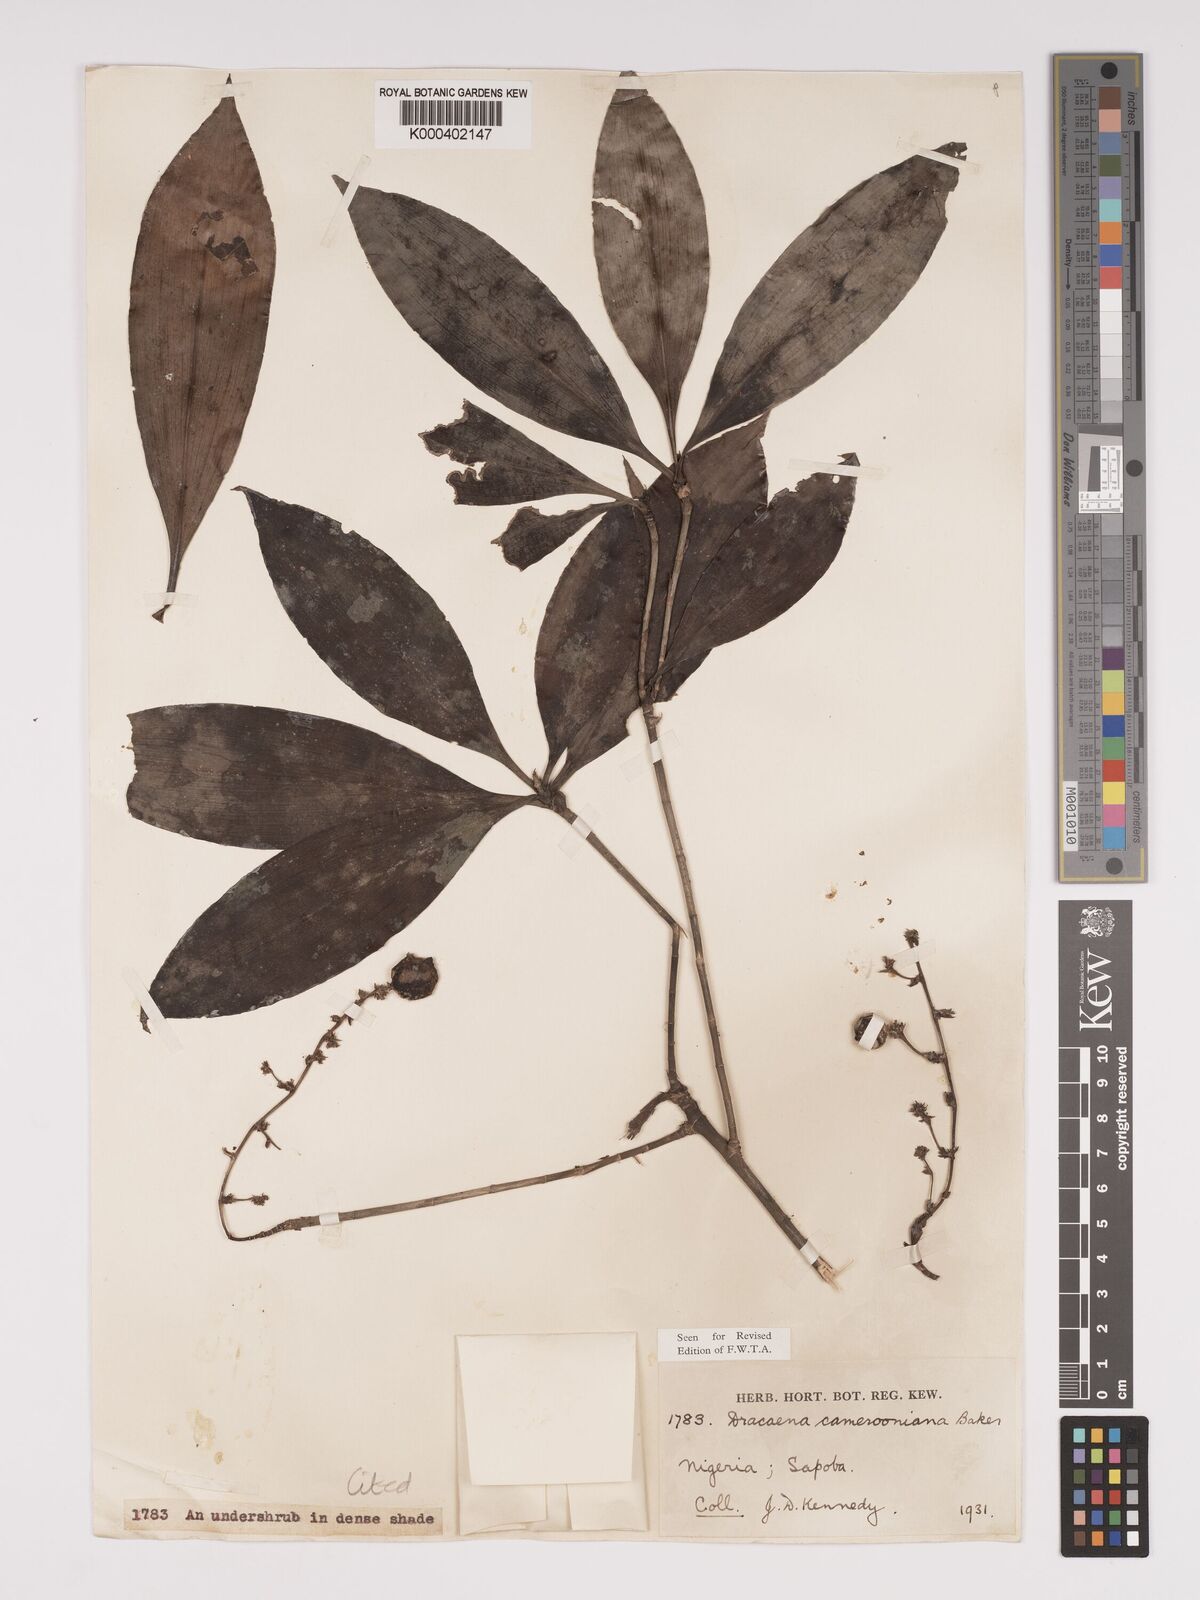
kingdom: Plantae
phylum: Tracheophyta
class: Liliopsida
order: Asparagales
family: Asparagaceae
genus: Dracaena
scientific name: Dracaena camerooniana
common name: Dragon tree
